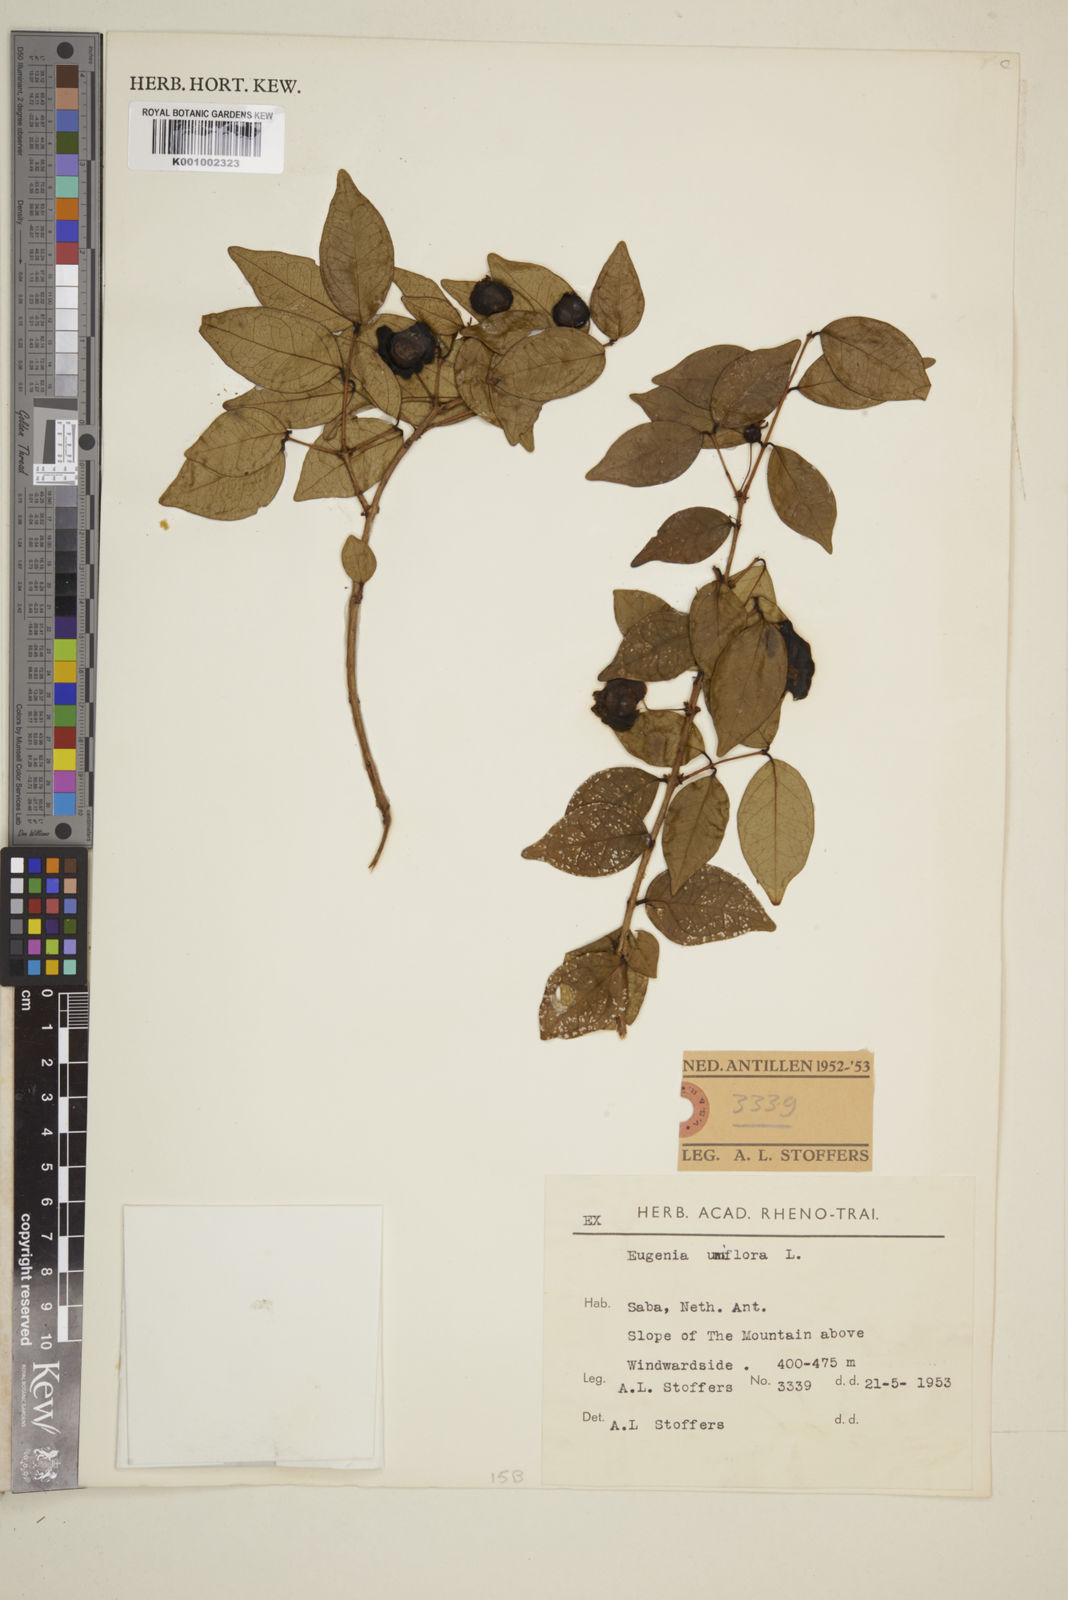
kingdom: Plantae
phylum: Tracheophyta
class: Magnoliopsida
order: Myrtales
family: Myrtaceae
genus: Eugenia
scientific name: Eugenia uniflora
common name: Surinam cherry
